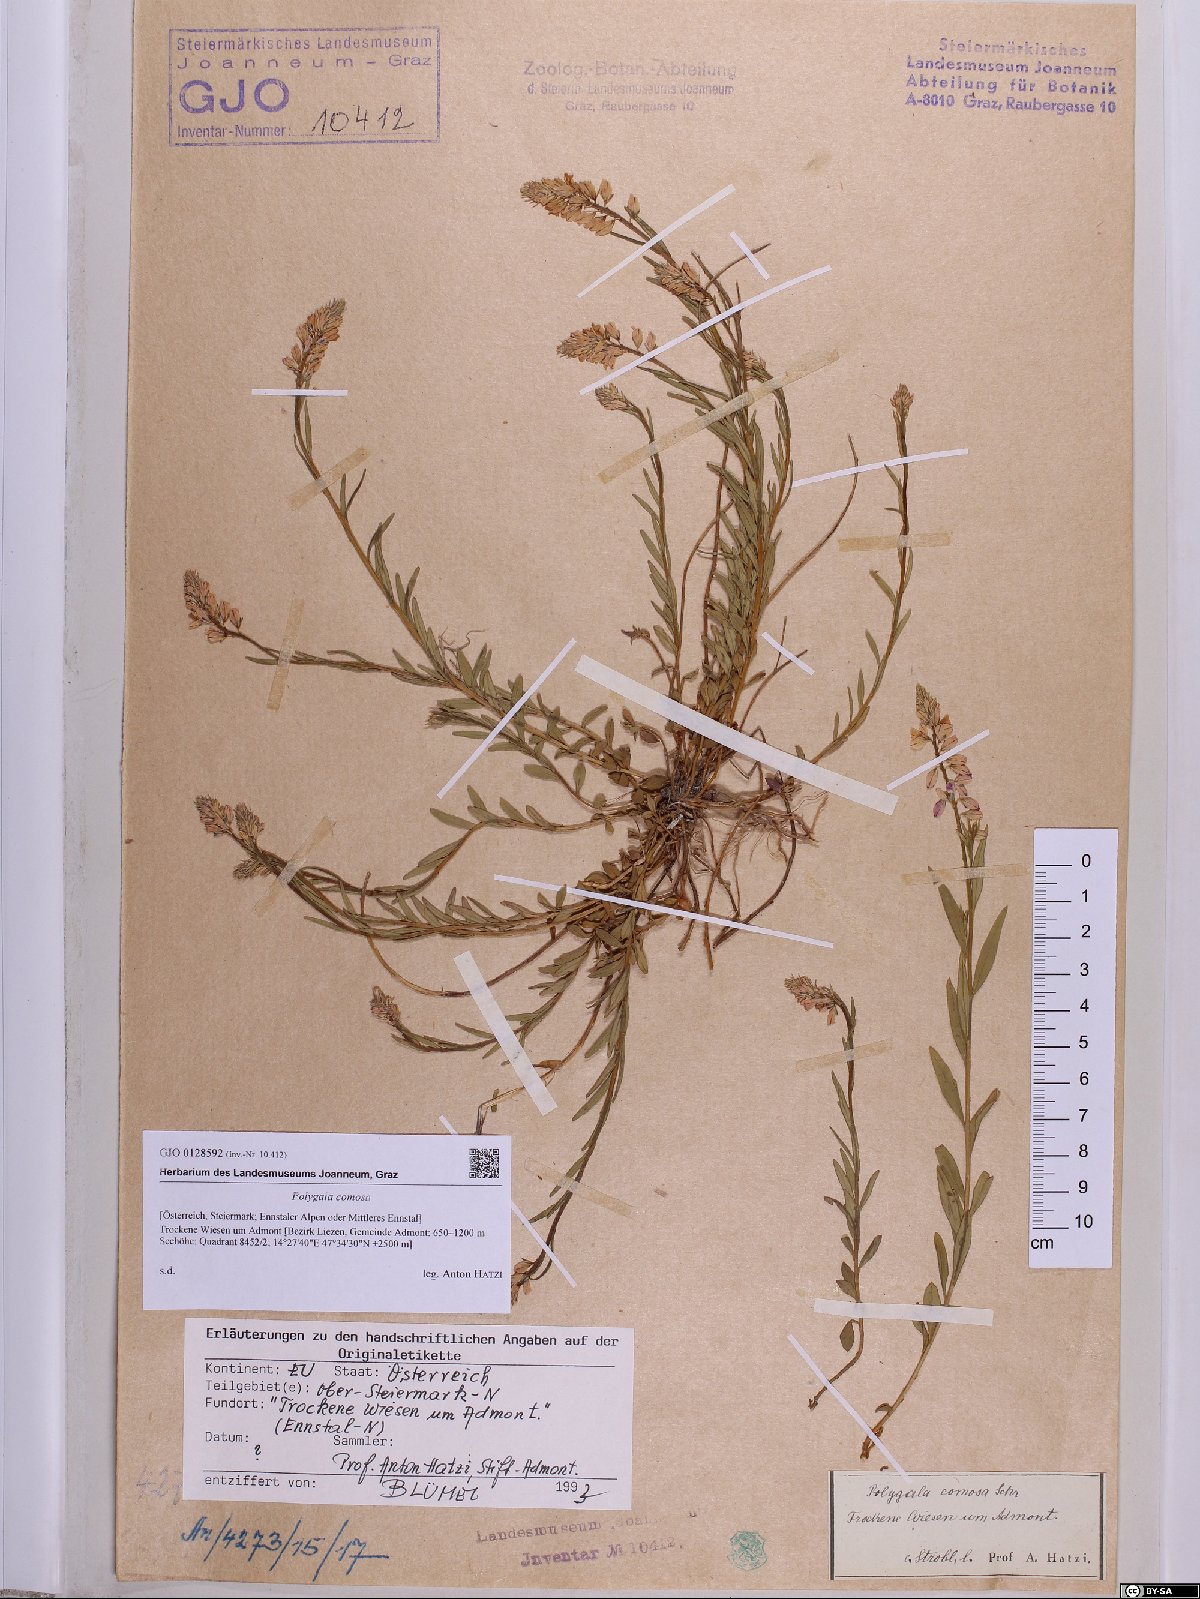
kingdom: Plantae
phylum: Tracheophyta
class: Magnoliopsida
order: Fabales
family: Polygalaceae
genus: Polygala
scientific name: Polygala comosa
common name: Tufted milkwort
